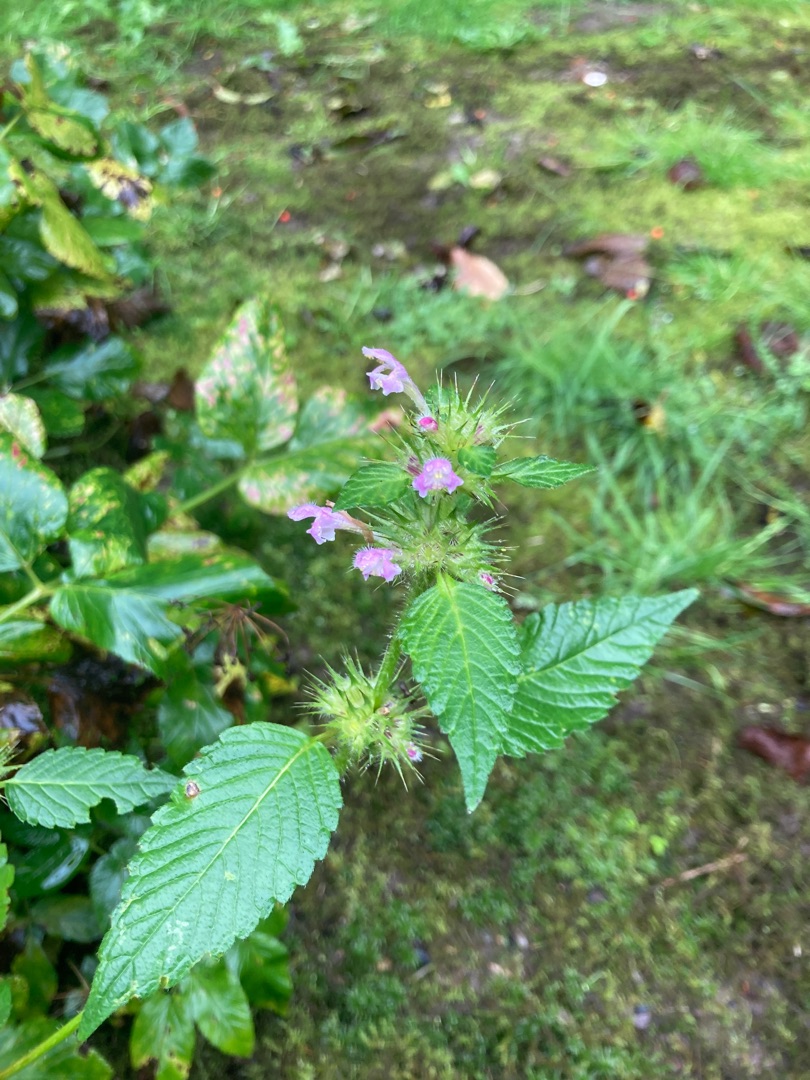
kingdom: Plantae
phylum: Tracheophyta
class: Magnoliopsida
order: Lamiales
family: Lamiaceae
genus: Galeopsis
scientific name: Galeopsis tetrahit
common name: Almindelig hanekro
